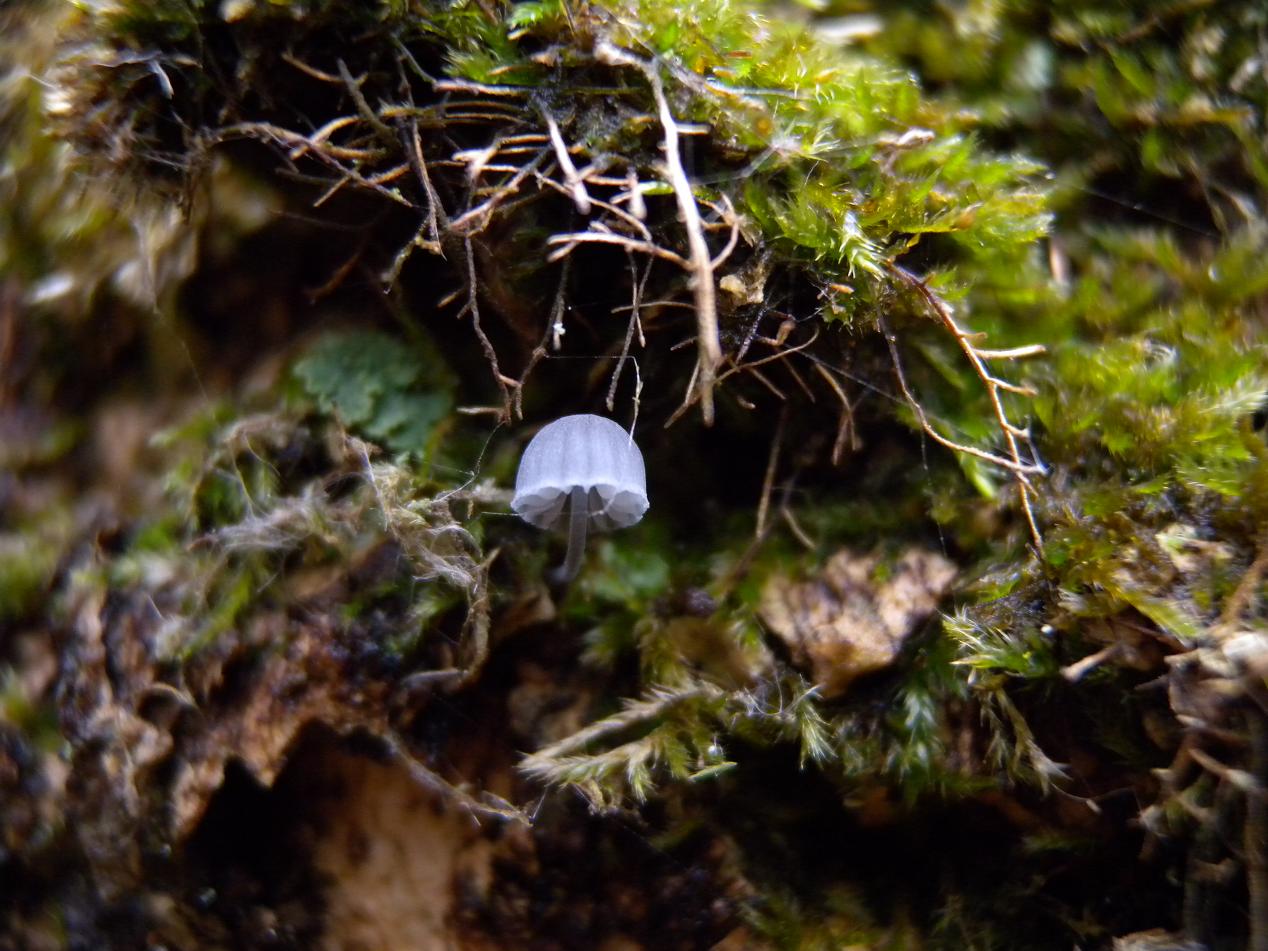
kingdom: Fungi
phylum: Basidiomycota
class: Agaricomycetes
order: Agaricales
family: Mycenaceae
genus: Mycena
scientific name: Mycena pseudocorticola
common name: gråblå bark-huesvamp
